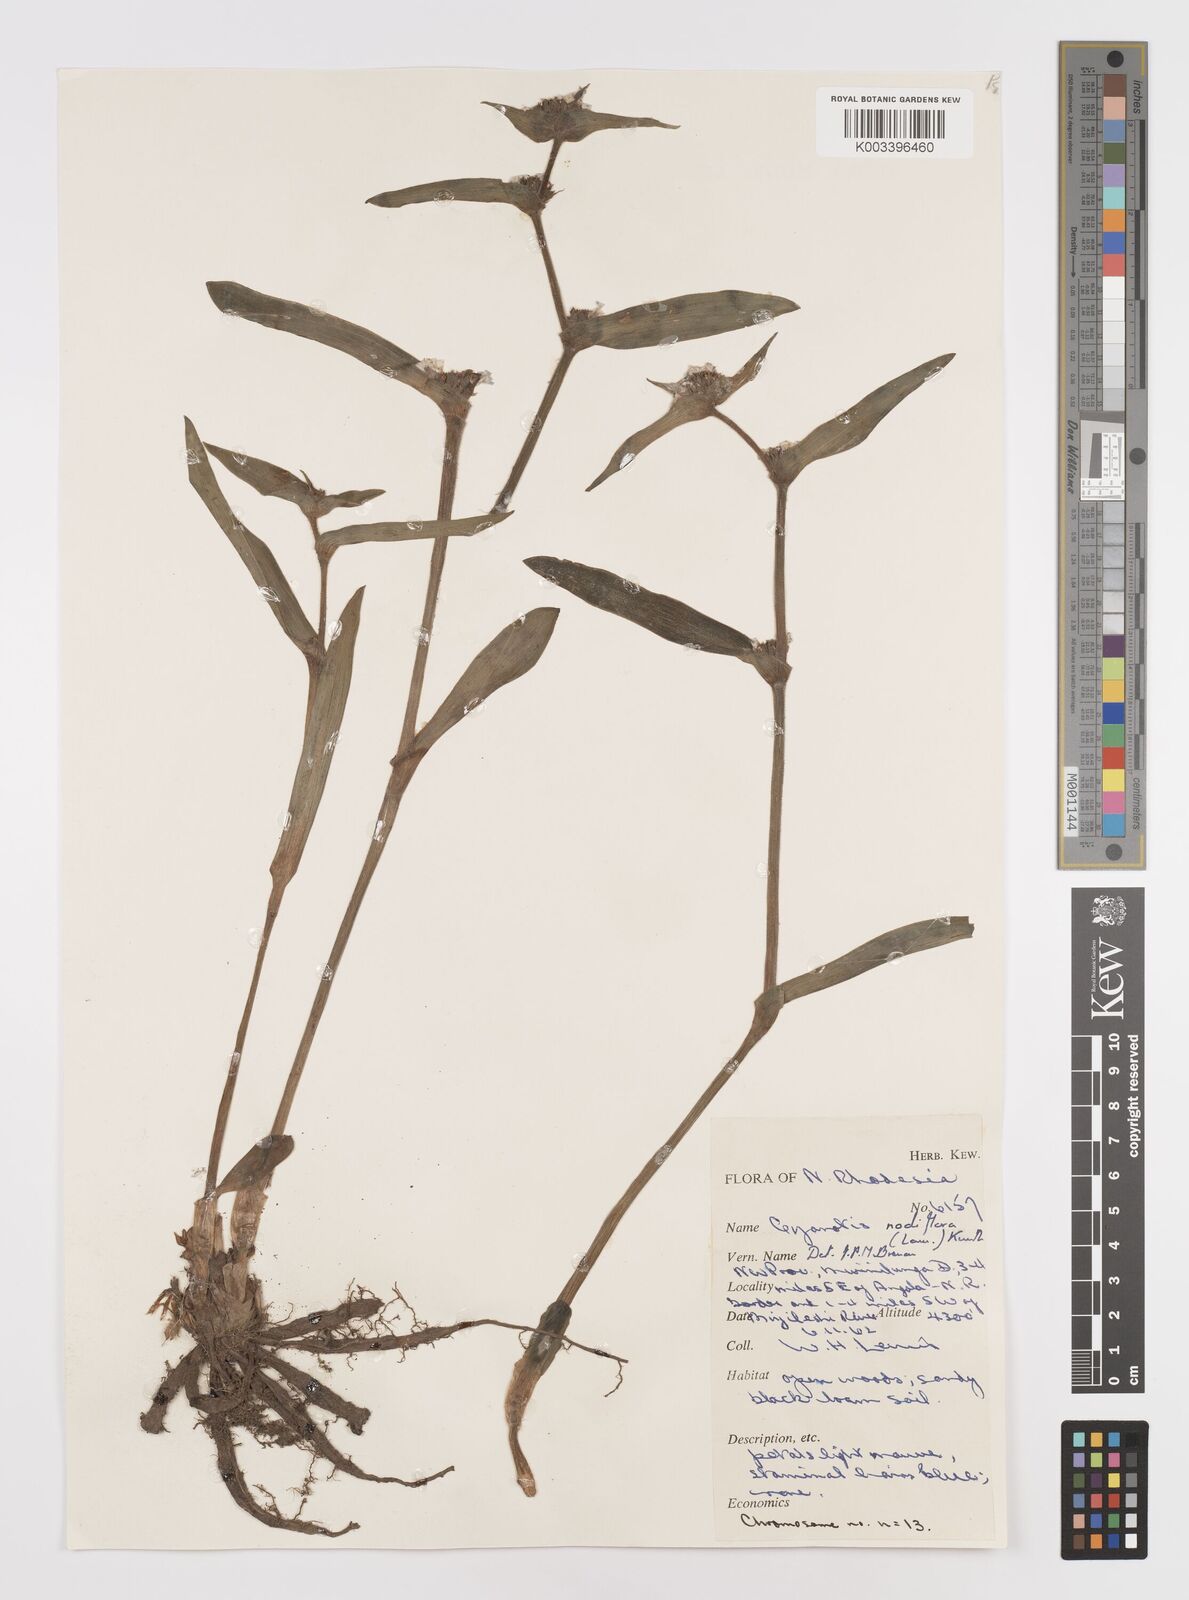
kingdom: Plantae
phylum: Tracheophyta
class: Liliopsida
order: Commelinales
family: Commelinaceae
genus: Cyanotis
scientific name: Cyanotis speciosa
